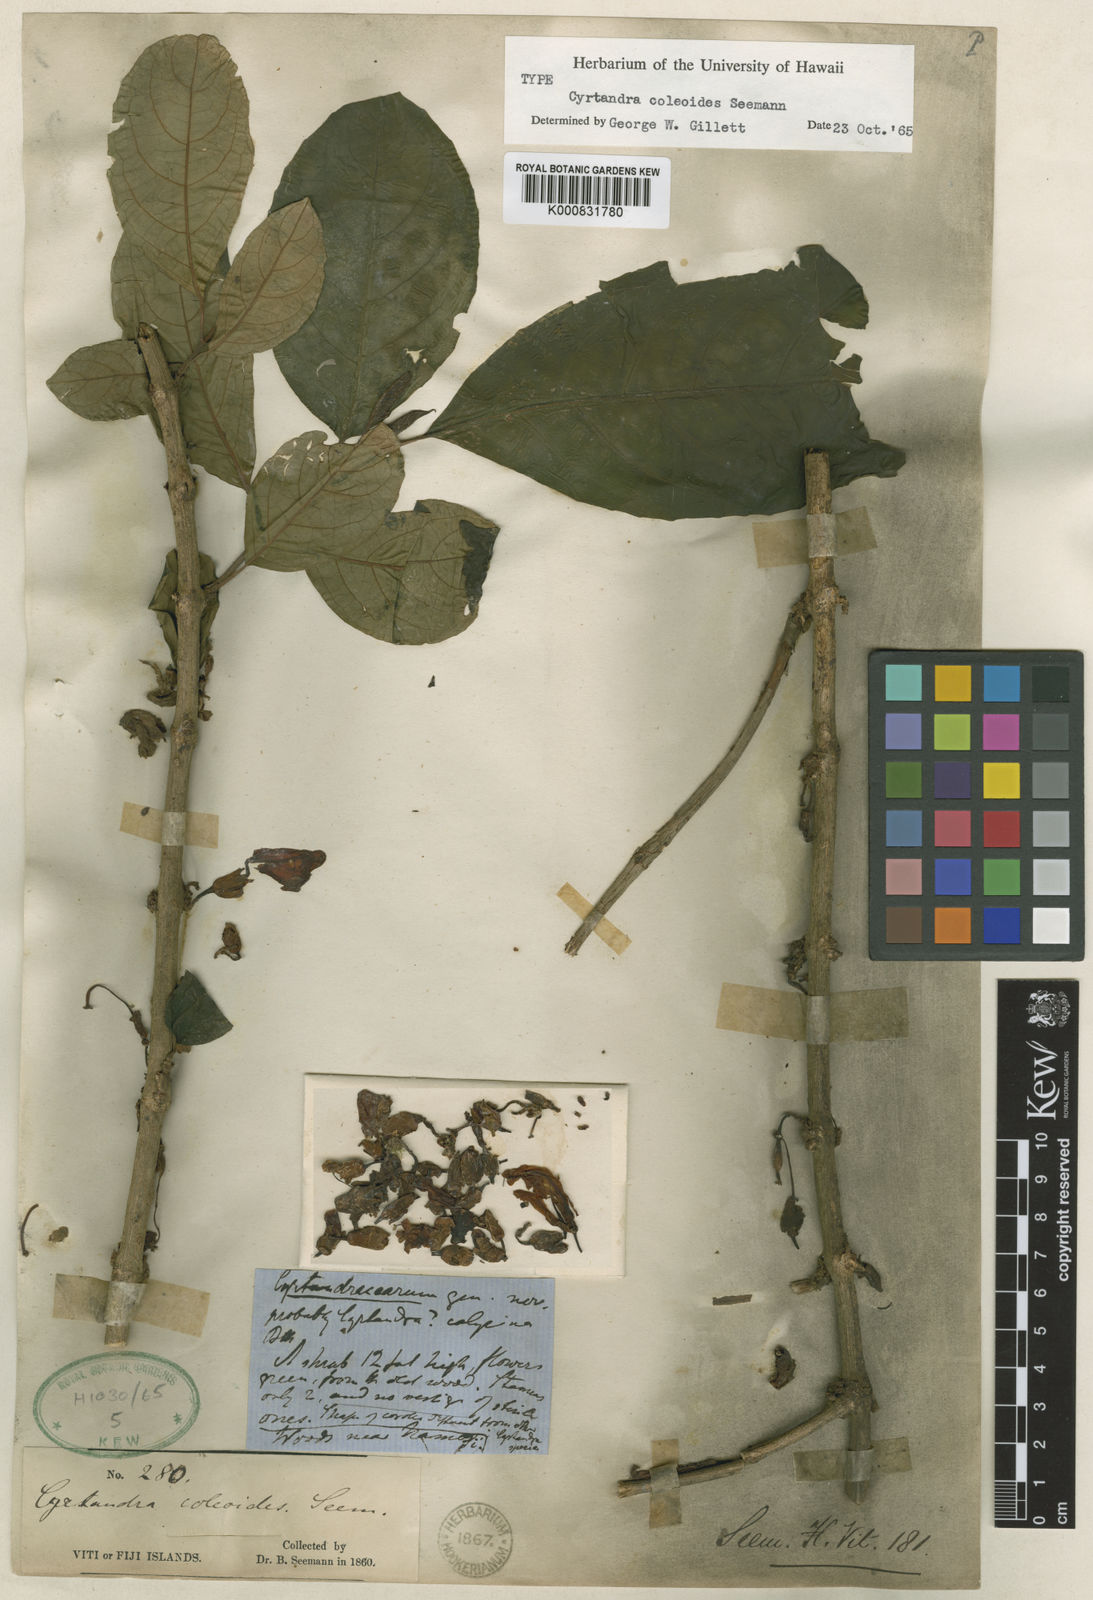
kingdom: Plantae
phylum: Tracheophyta
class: Magnoliopsida
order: Lamiales
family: Gesneriaceae
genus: Cyrtandra
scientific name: Cyrtandra coleoides
